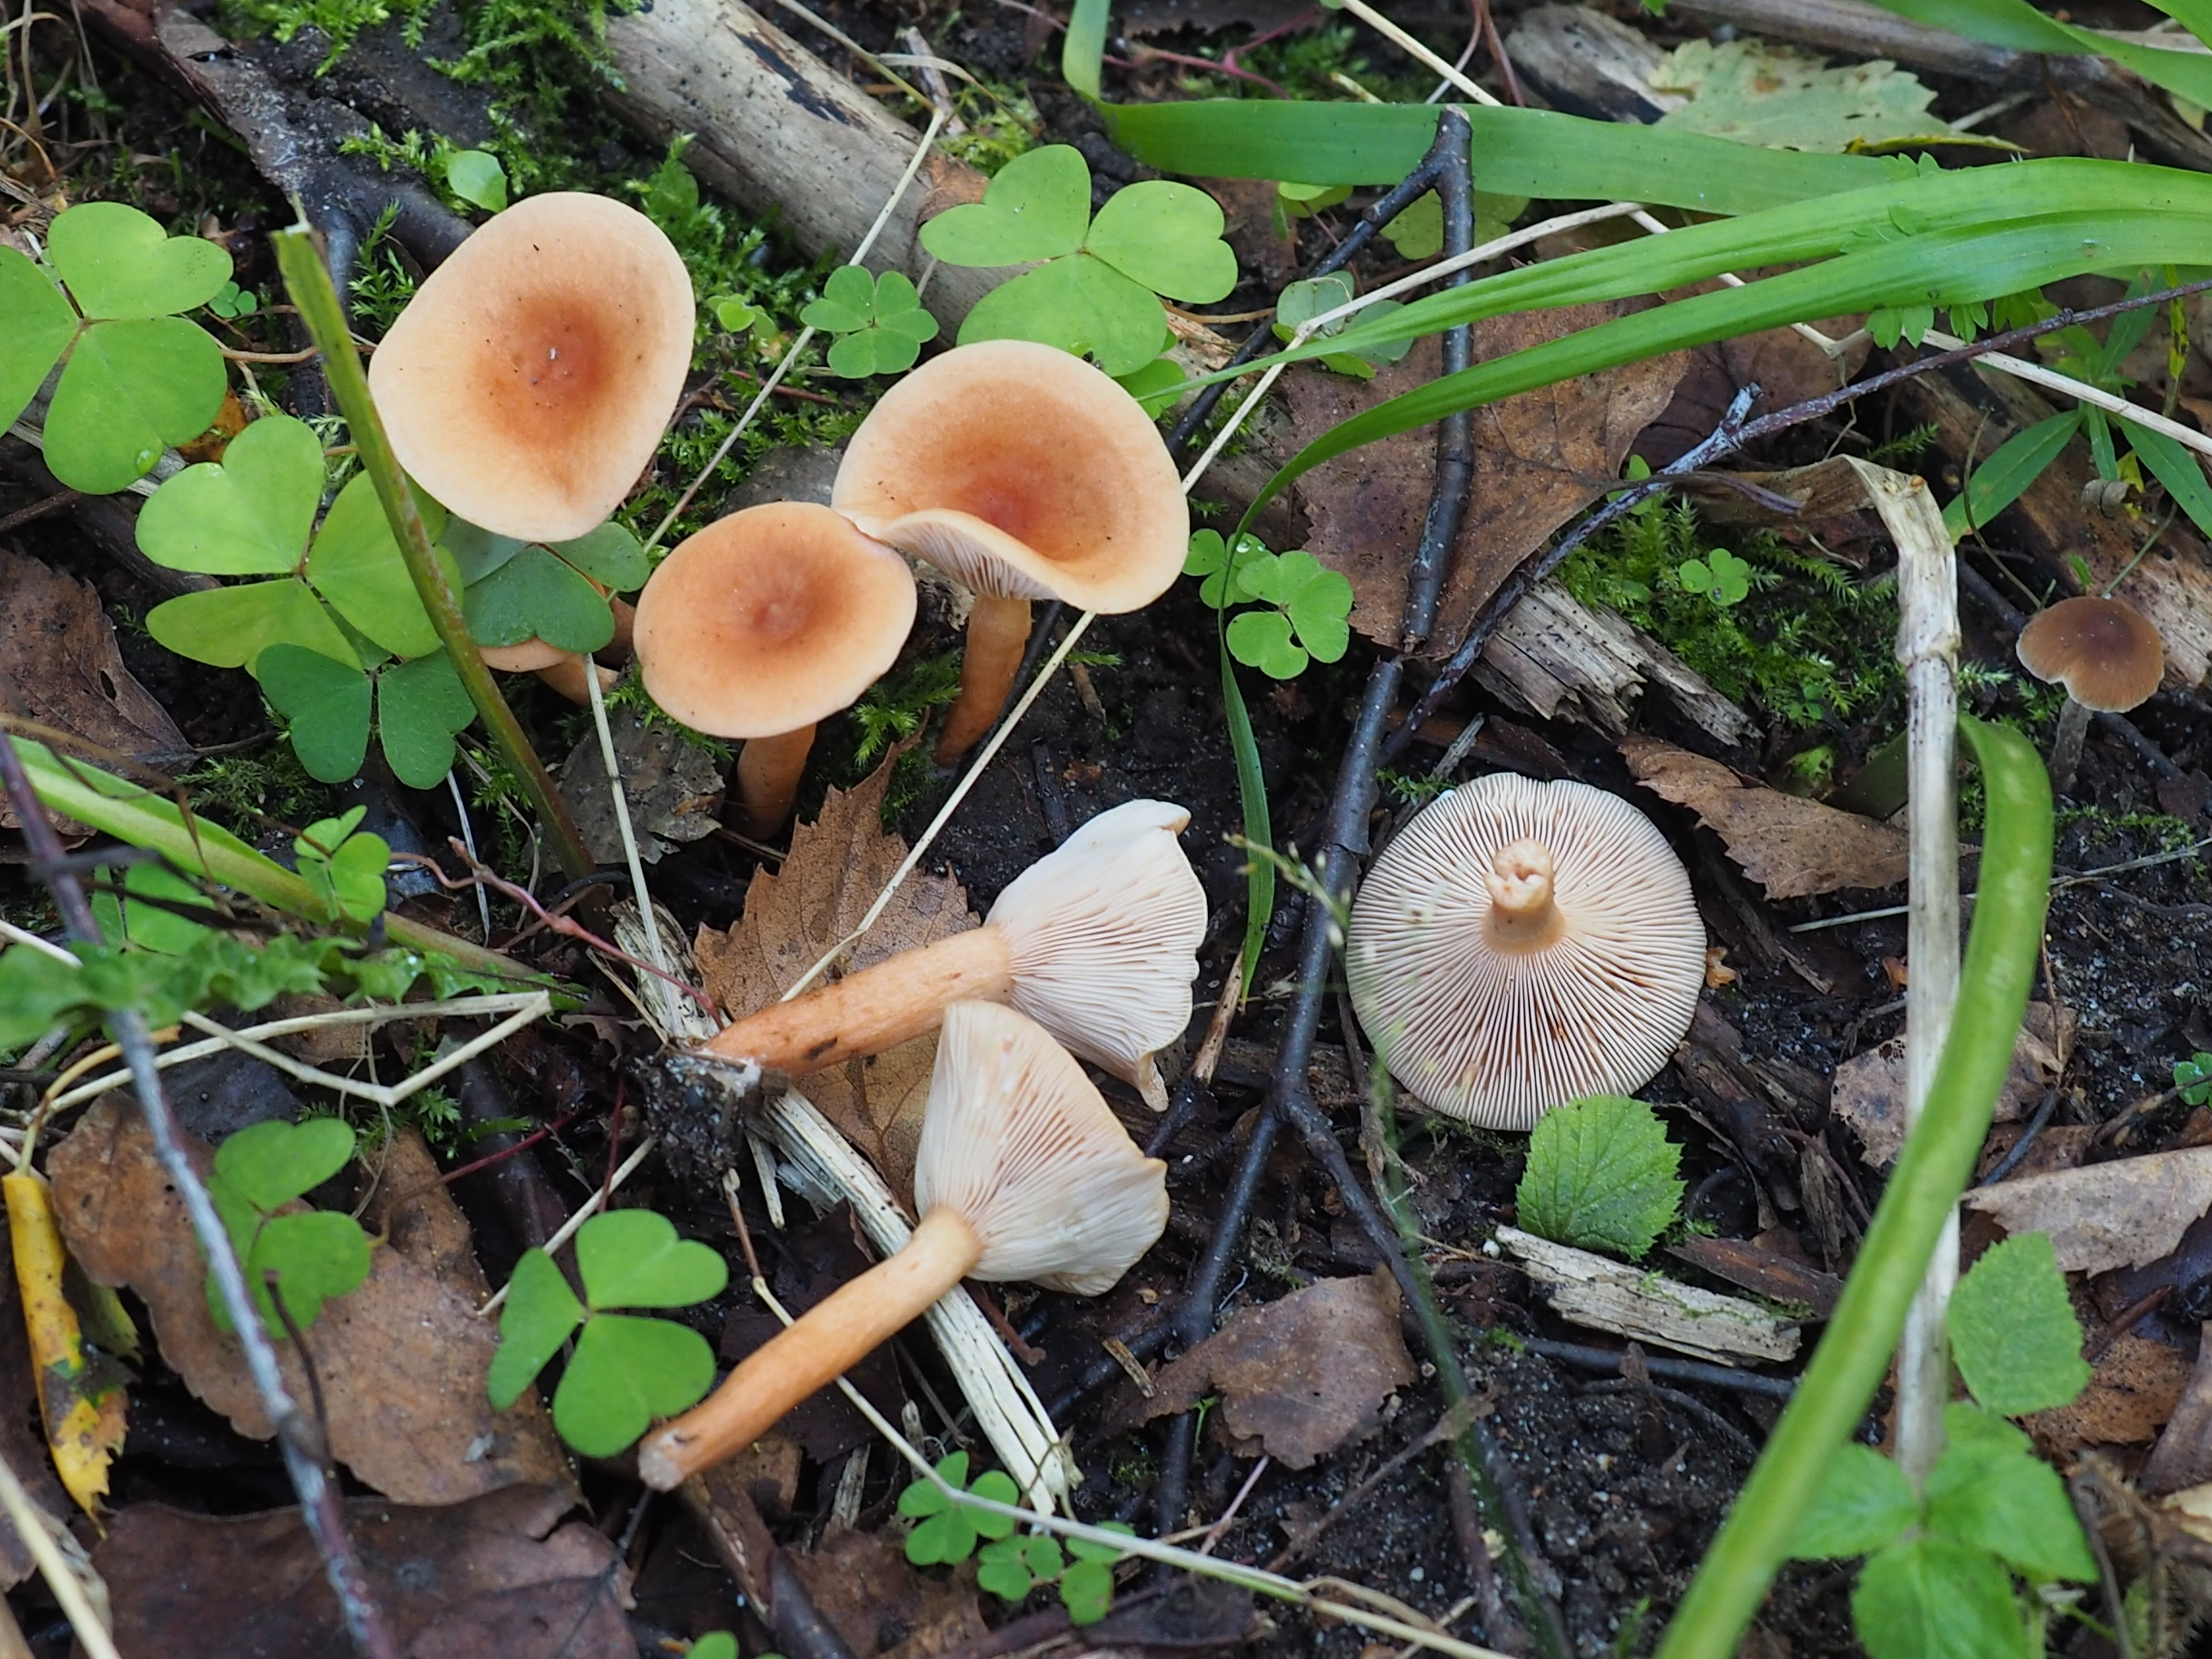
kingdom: Fungi
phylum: Basidiomycota
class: Agaricomycetes
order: Russulales
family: Russulaceae
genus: Lactarius
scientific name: Lactarius tabidus
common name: Birch milkcap
